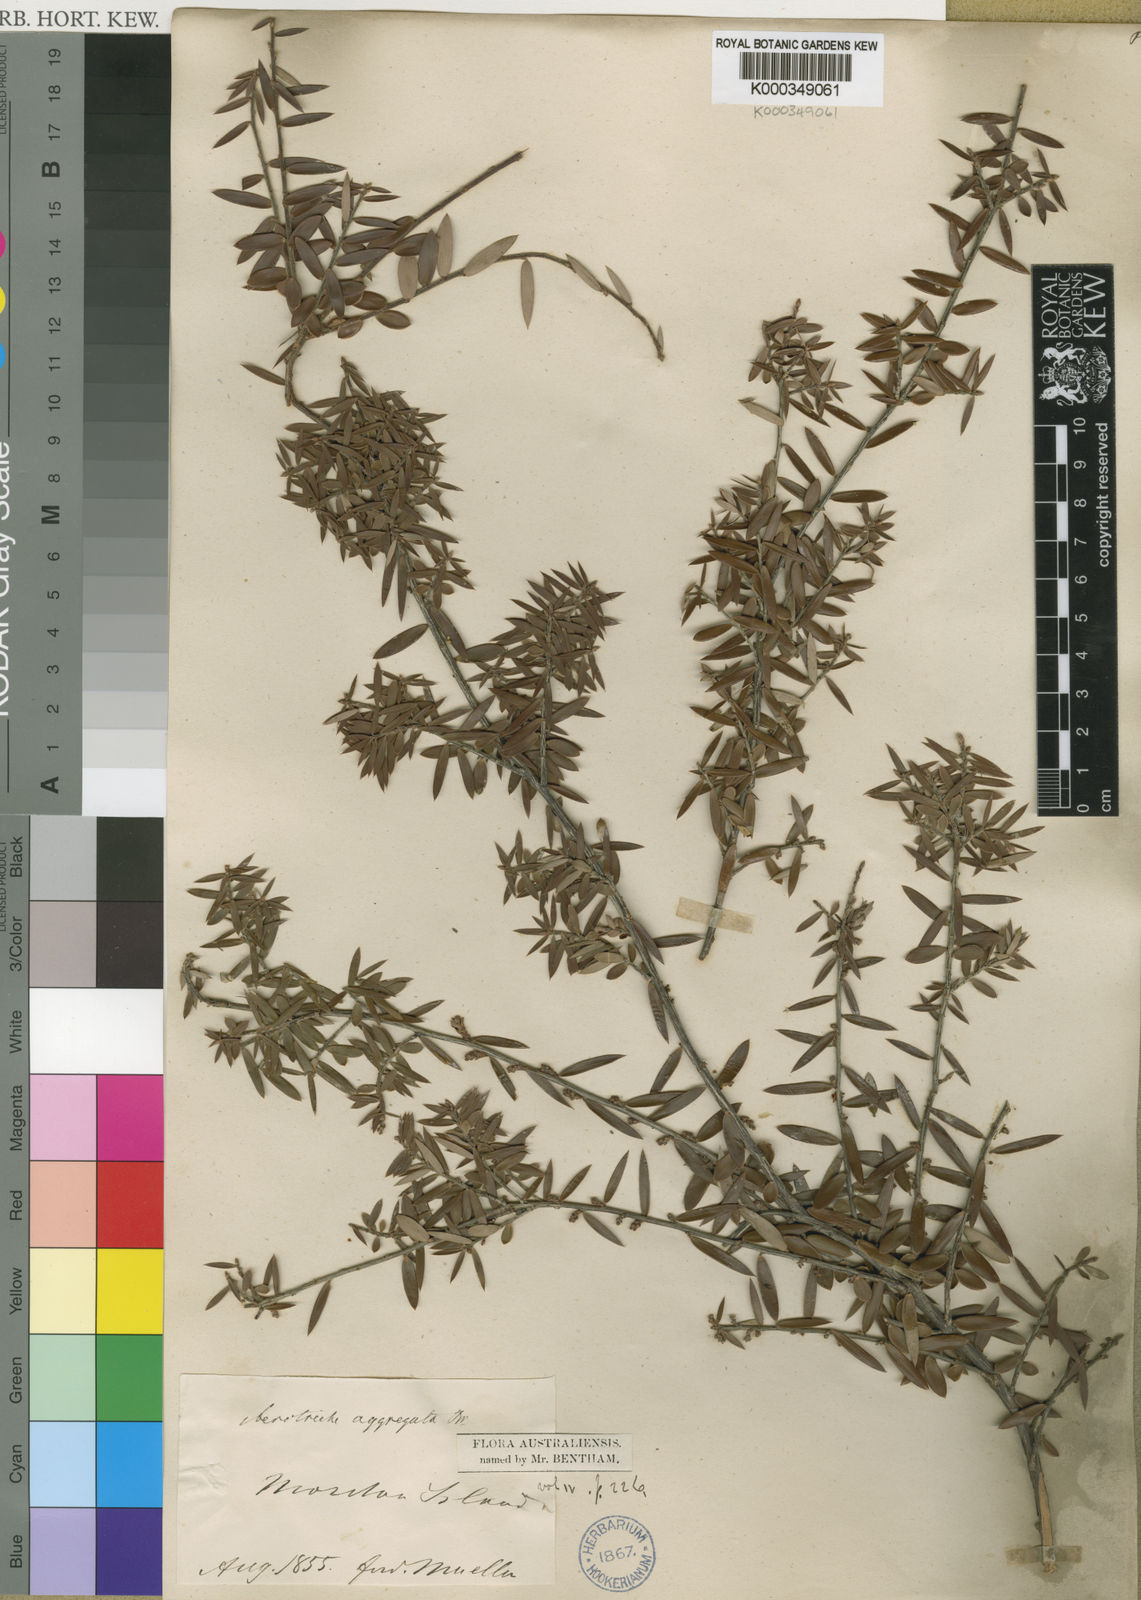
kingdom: Plantae
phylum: Tracheophyta
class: Magnoliopsida
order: Ericales
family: Ericaceae
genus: Acrotriche
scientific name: Acrotriche aggregata
